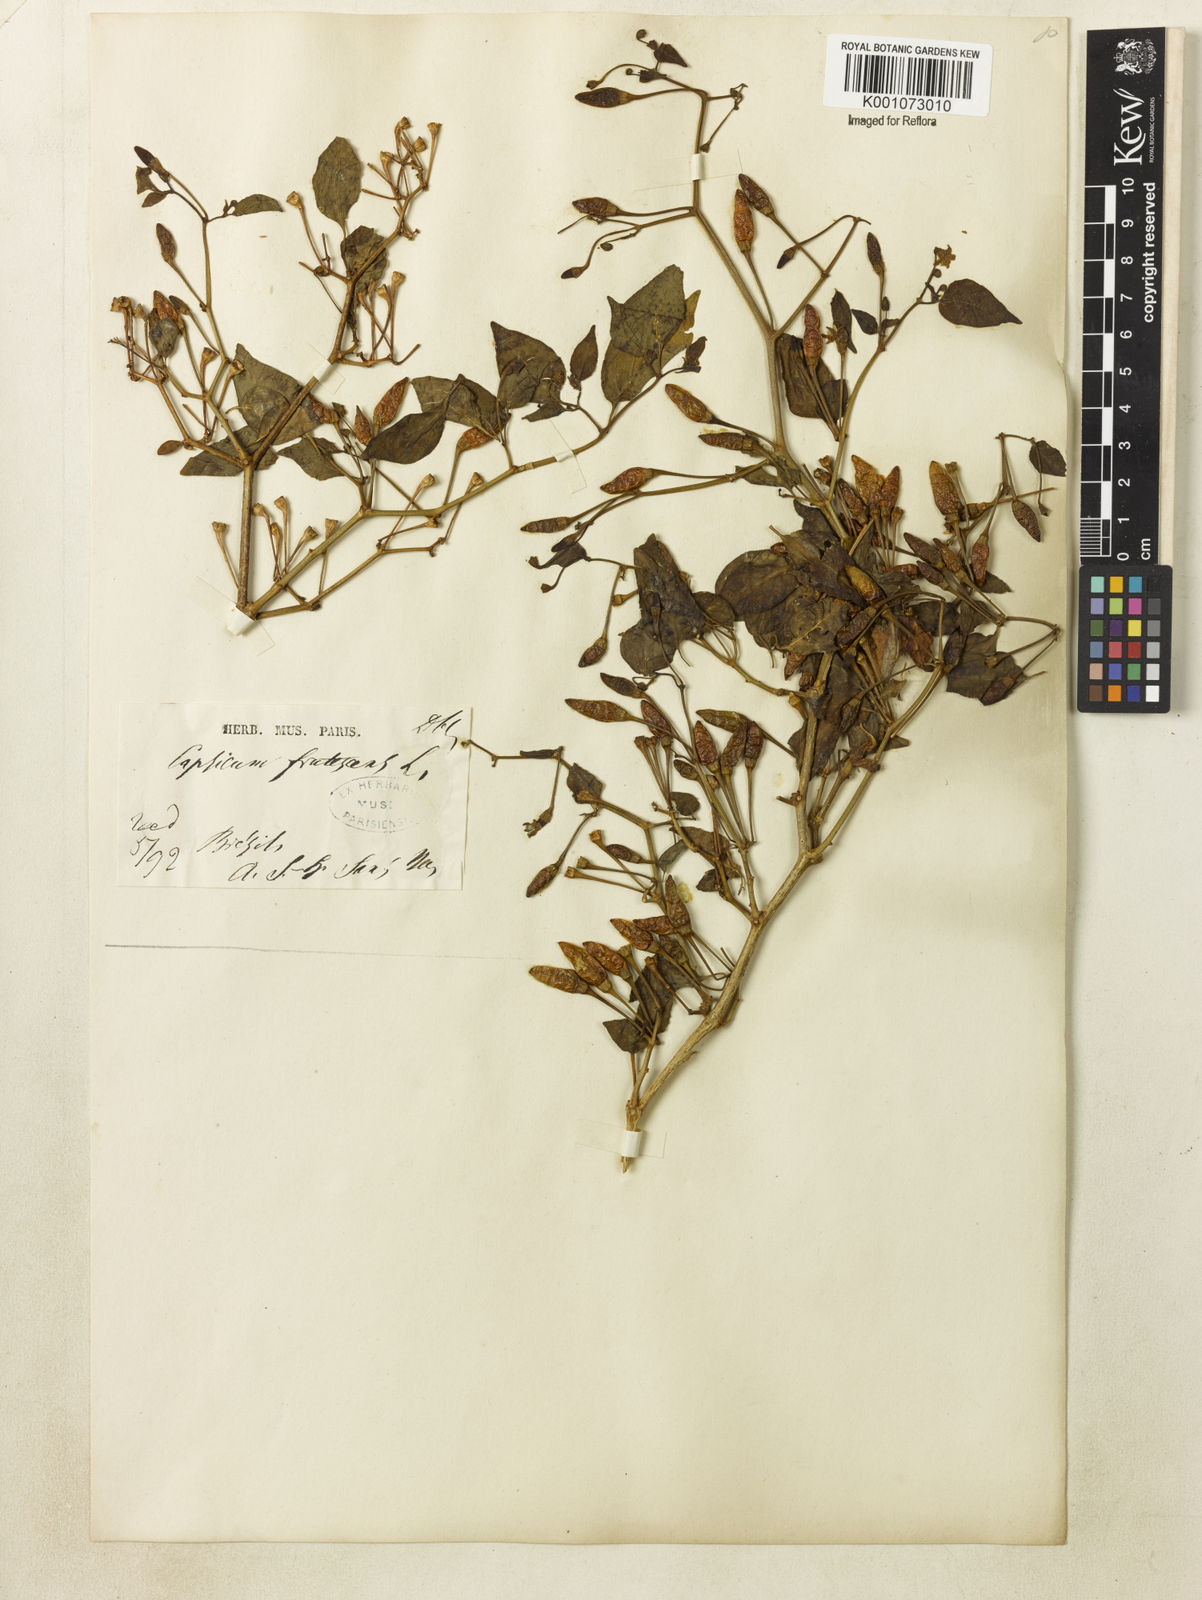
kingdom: Plantae
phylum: Tracheophyta
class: Magnoliopsida
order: Solanales
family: Solanaceae
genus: Capsicum
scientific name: Capsicum frutescens
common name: Bird pepper
